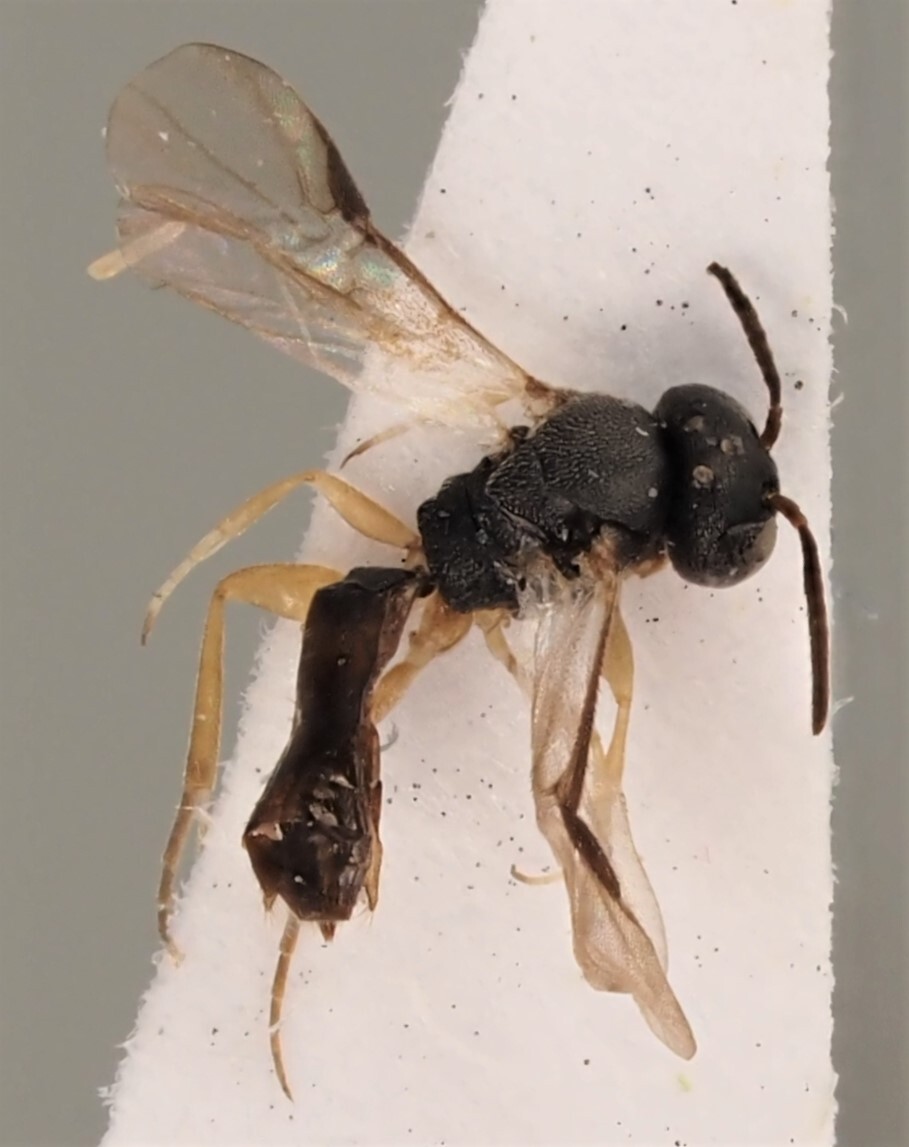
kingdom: Animalia
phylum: Arthropoda
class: Insecta
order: Hymenoptera
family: Braconidae
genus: Elasmosoma
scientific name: Elasmosoma depressum
